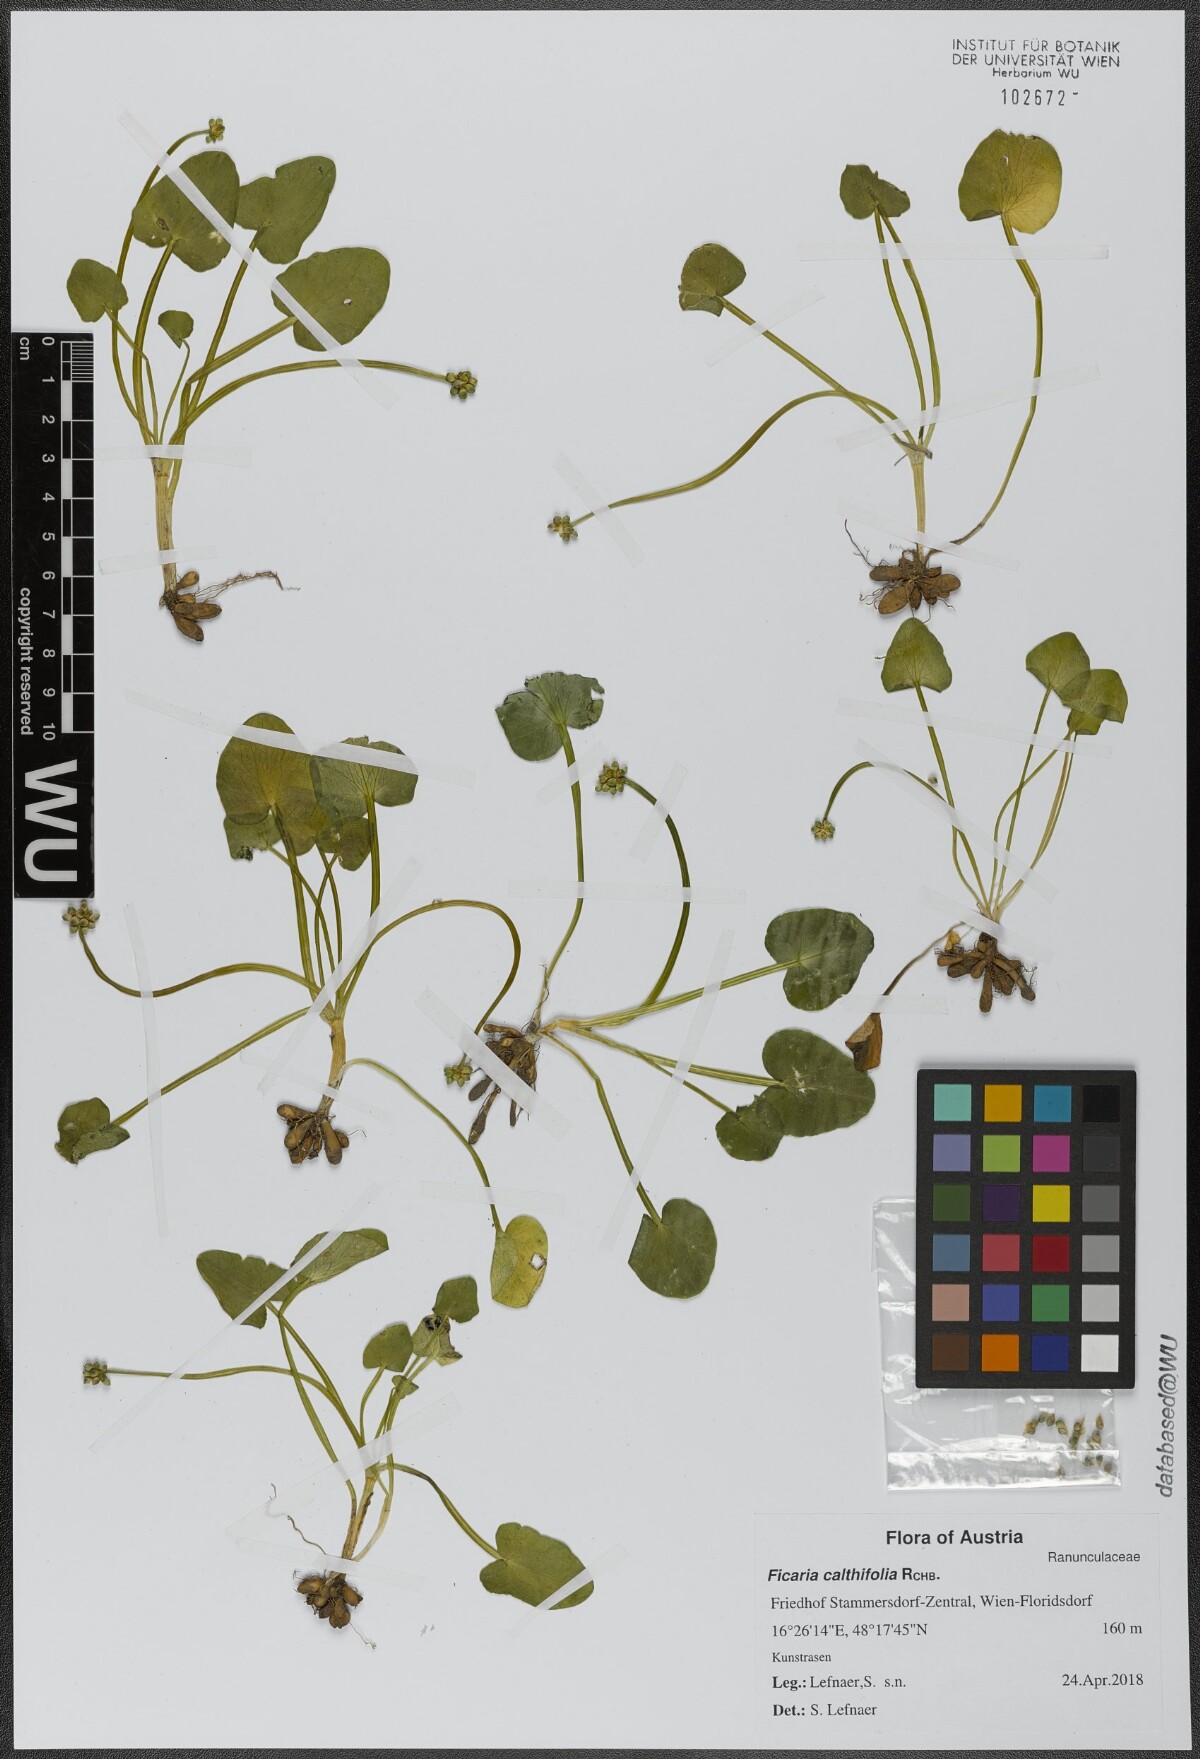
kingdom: Plantae
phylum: Tracheophyta
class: Magnoliopsida
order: Ranunculales
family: Ranunculaceae
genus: Ficaria
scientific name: Ficaria calthifolia
